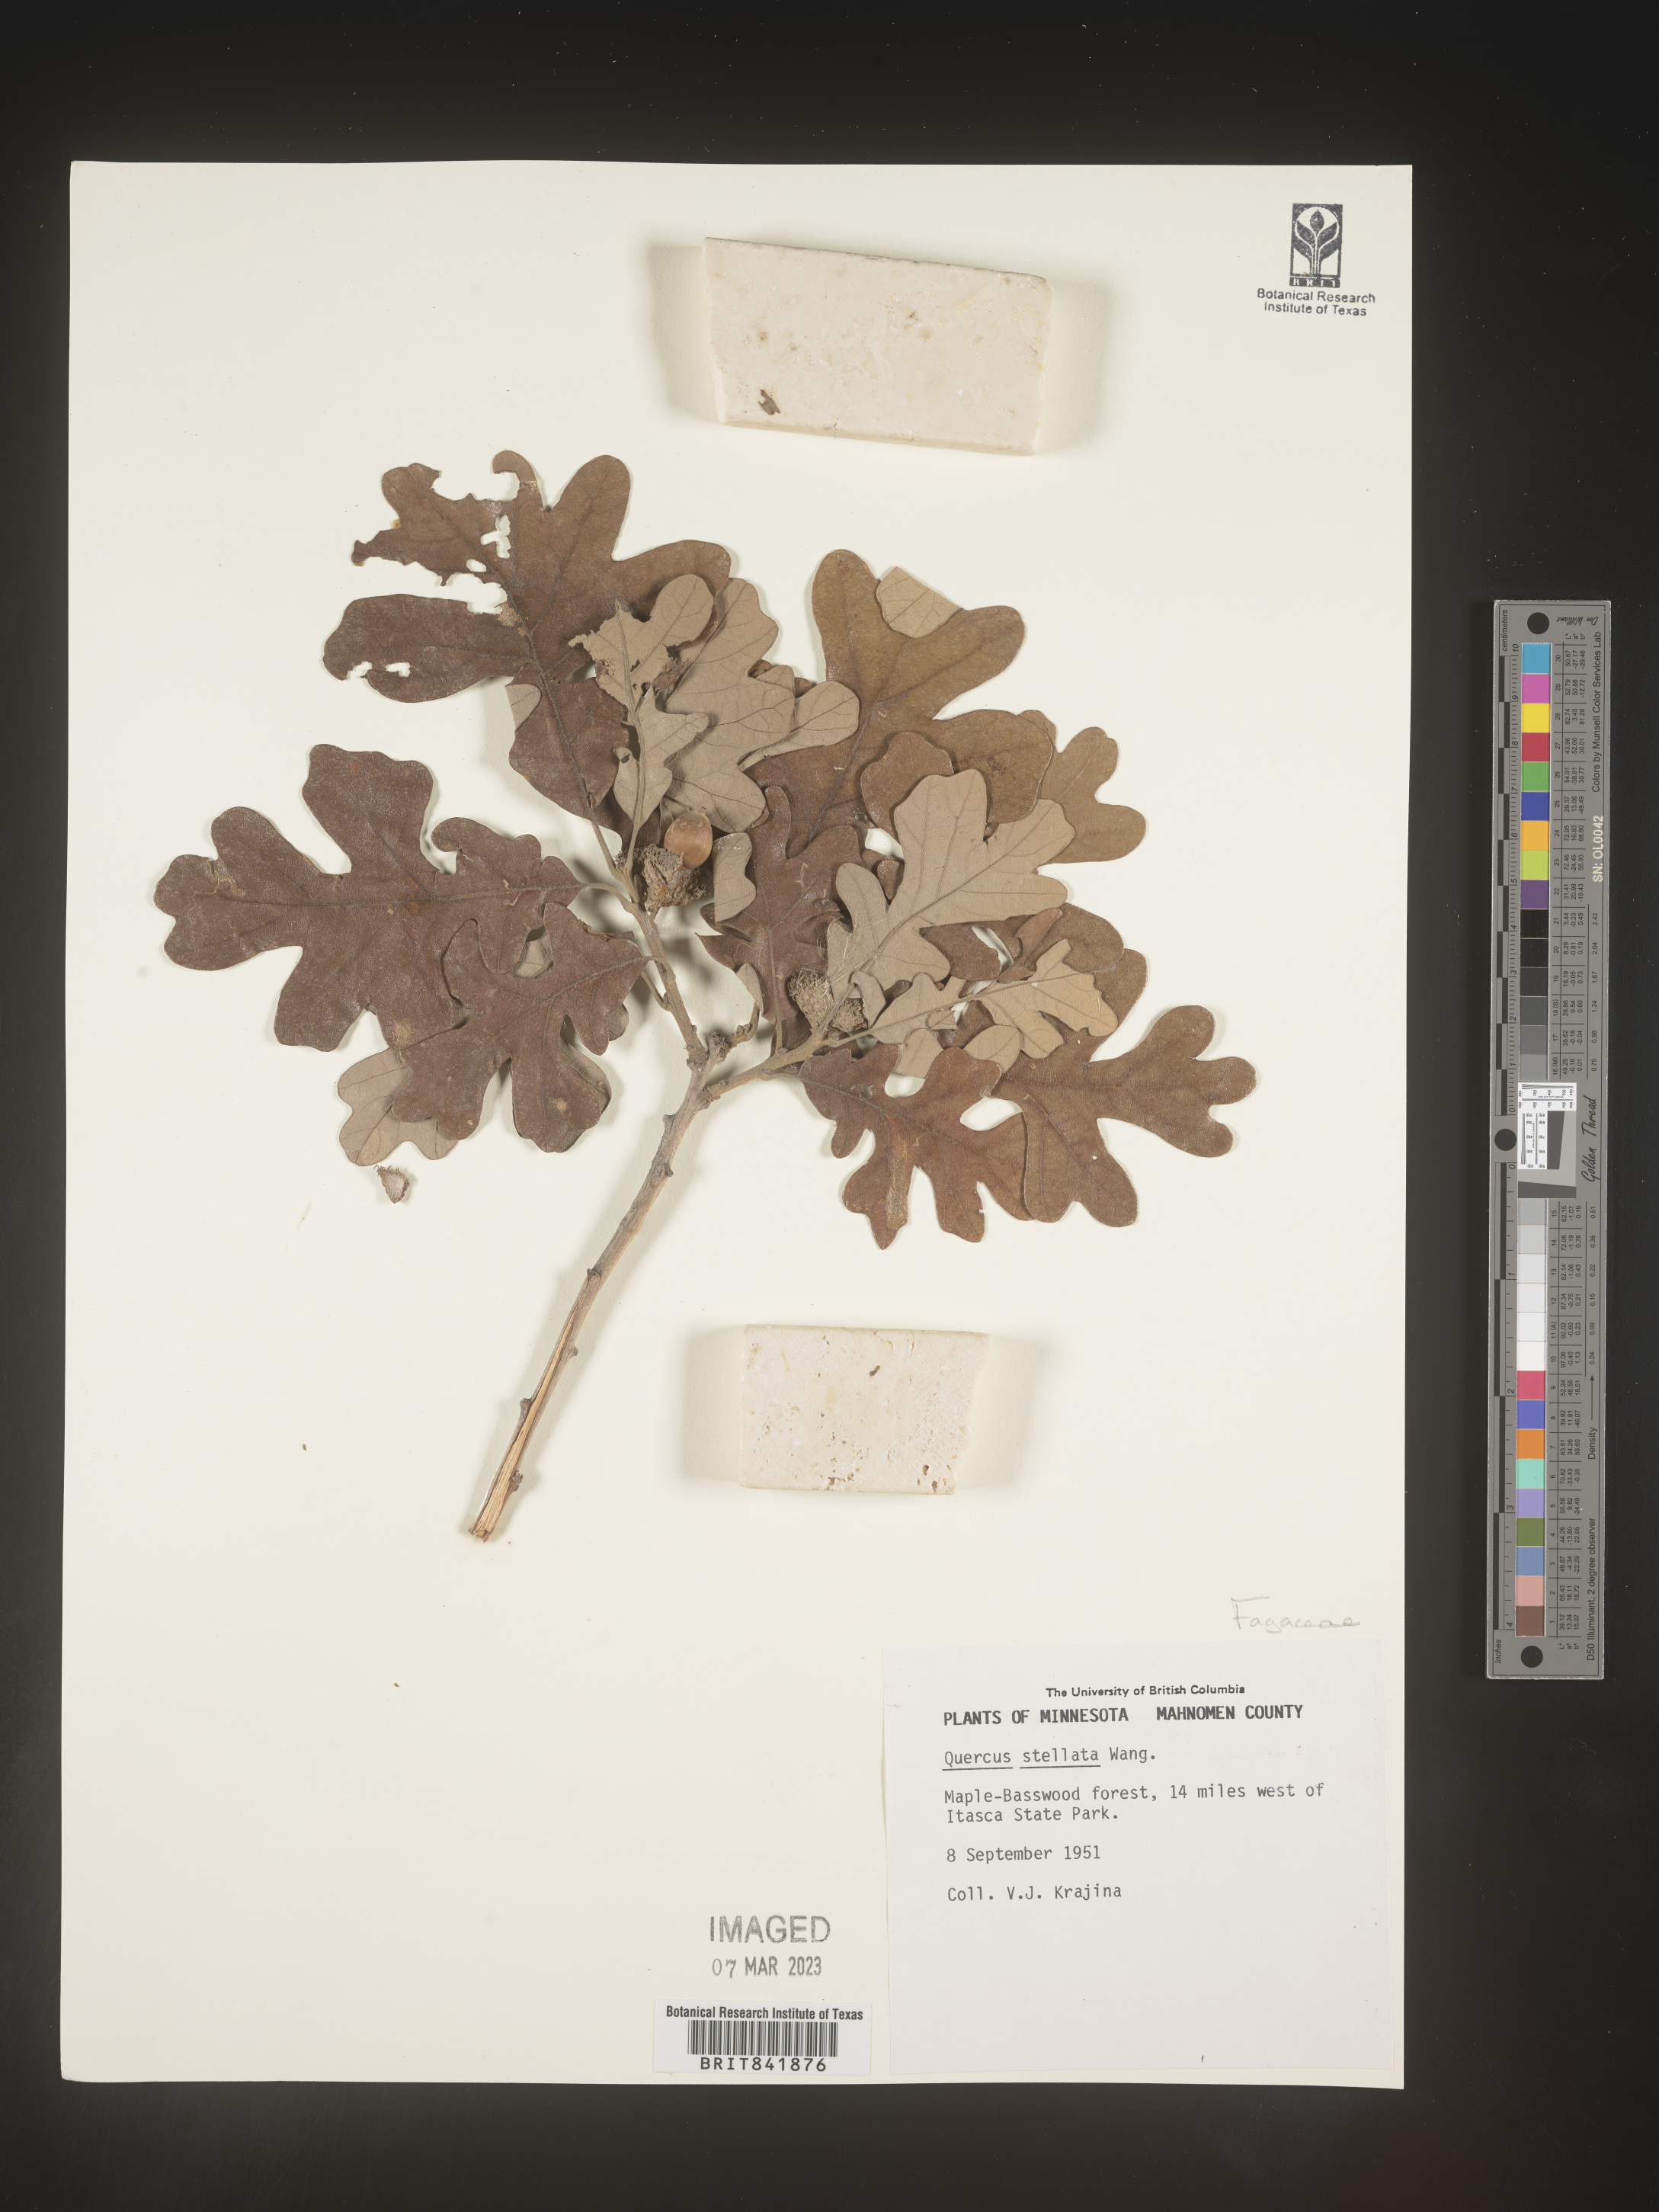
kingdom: Plantae
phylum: Tracheophyta
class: Magnoliopsida
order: Fagales
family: Fagaceae
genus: Quercus
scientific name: Quercus stellata
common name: Post oak
